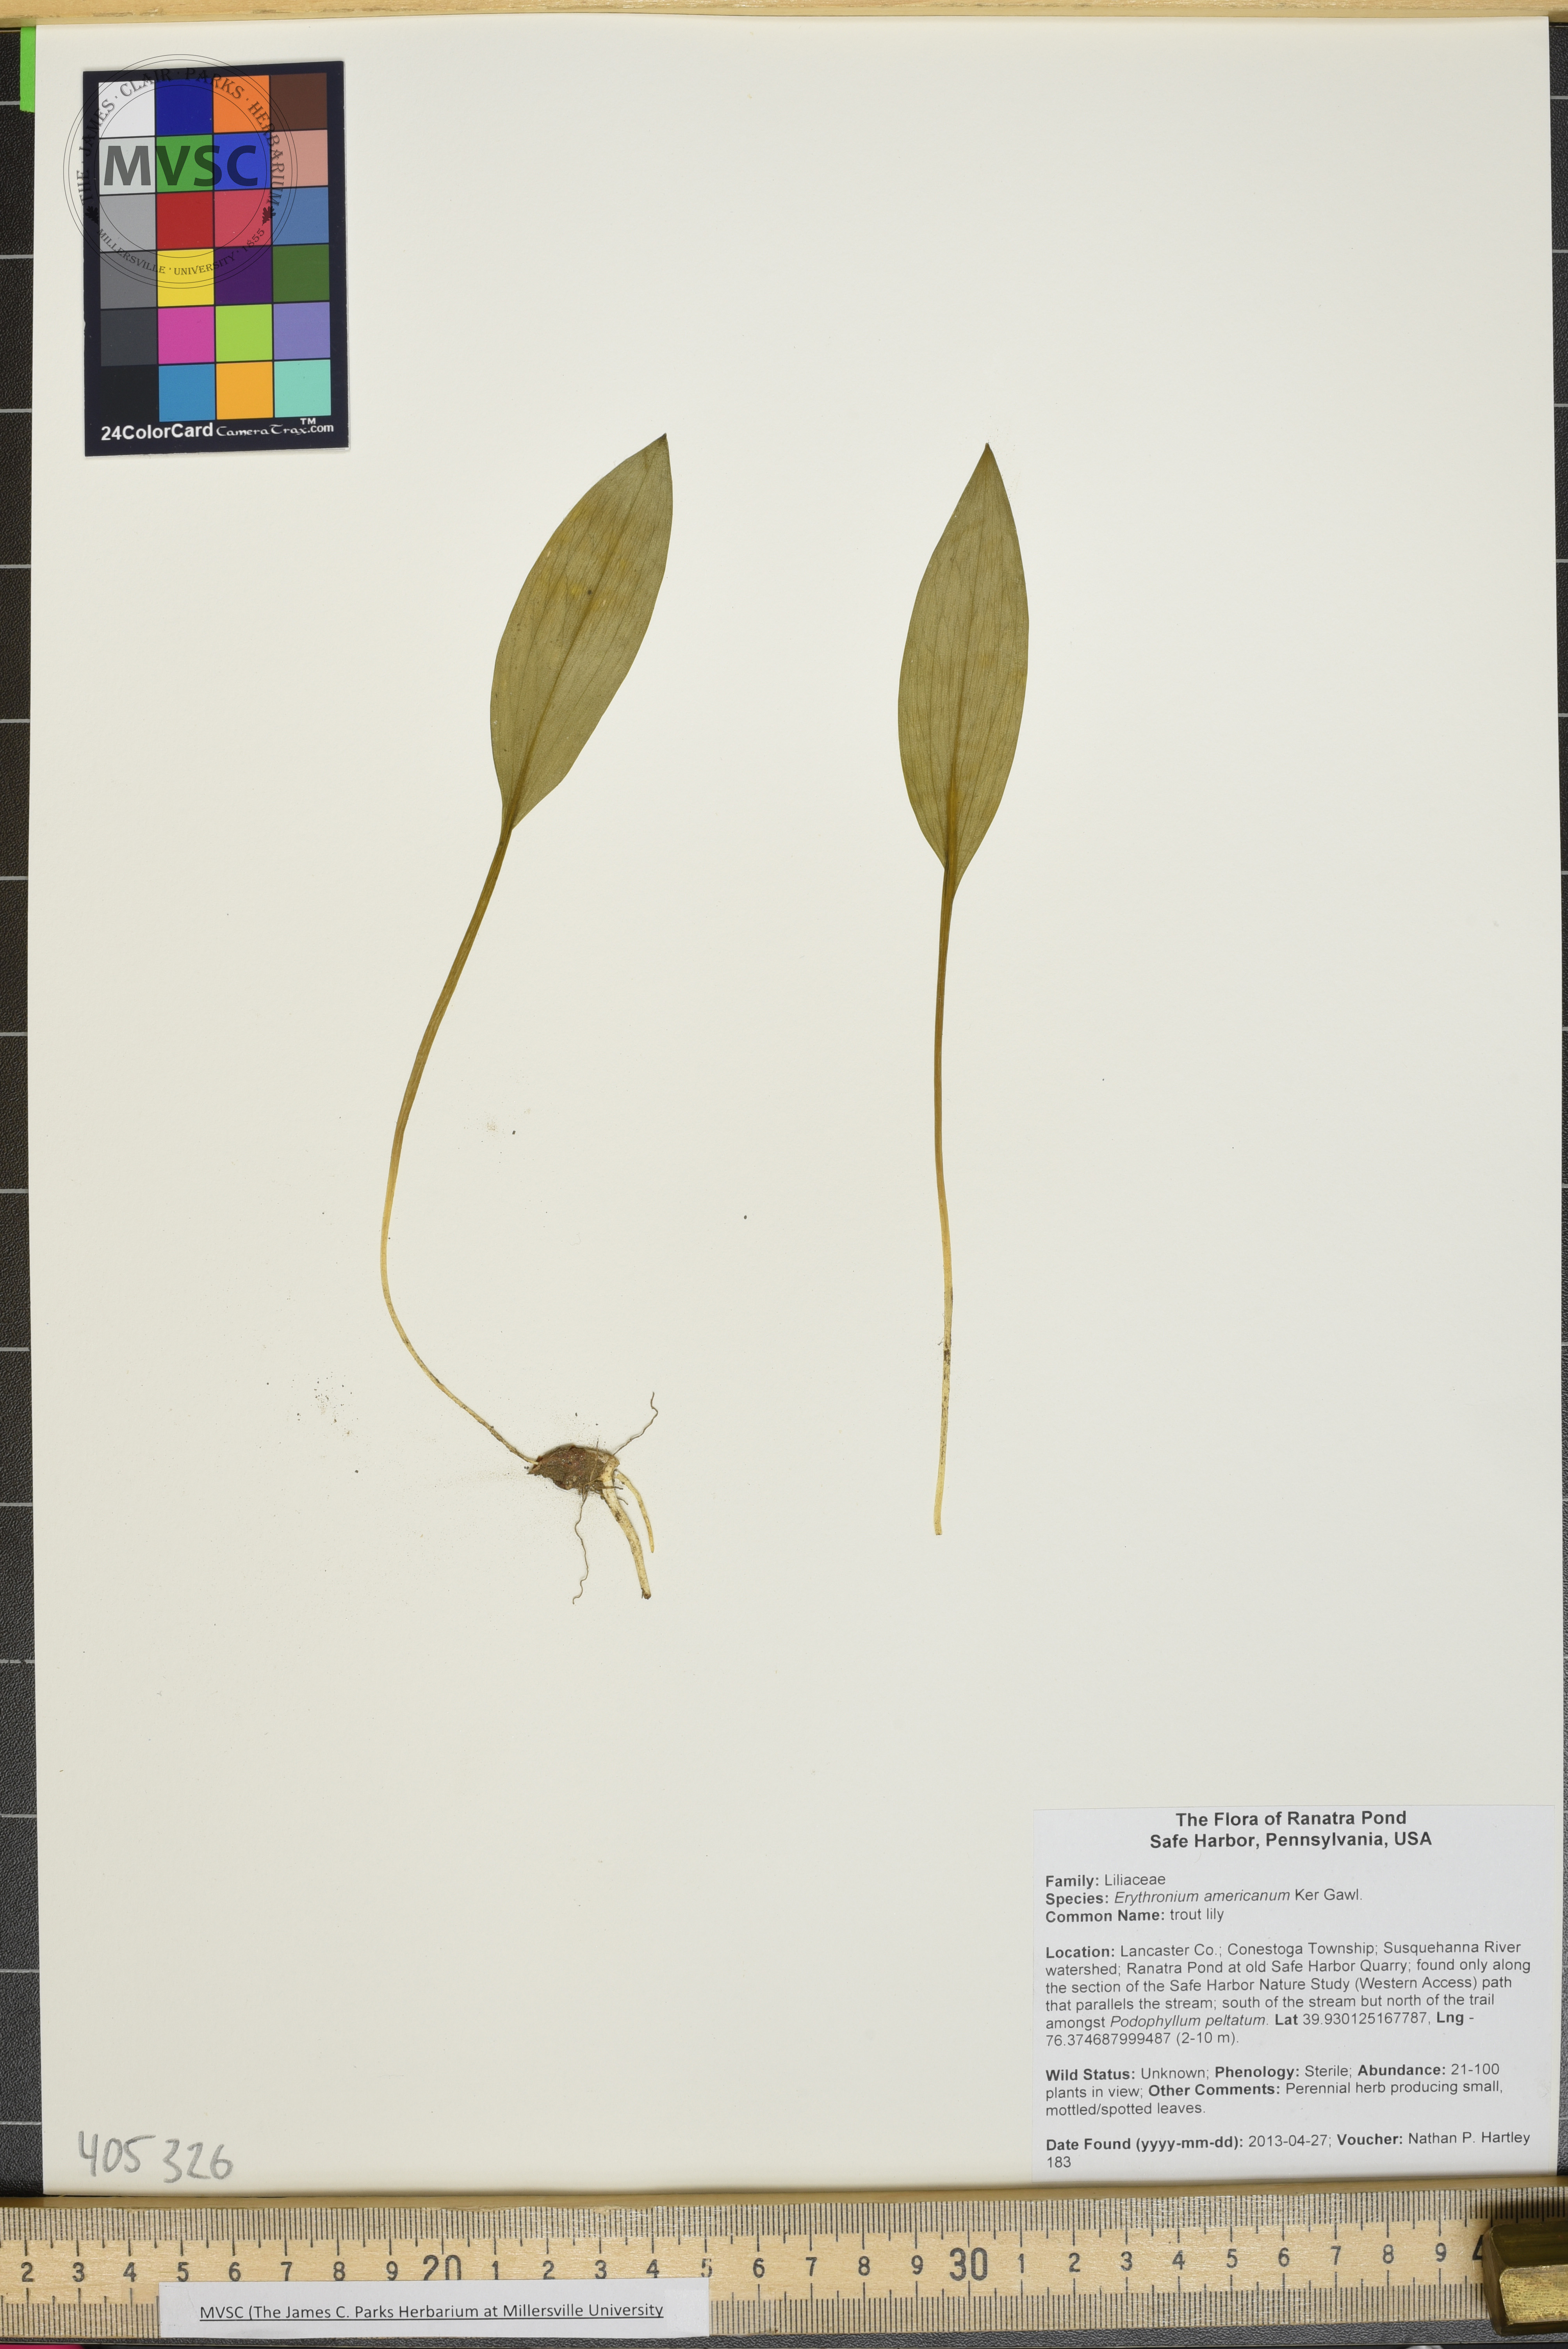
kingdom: Plantae
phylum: Tracheophyta
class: Liliopsida
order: Liliales
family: Liliaceae
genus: Erythronium
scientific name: Erythronium americanum
